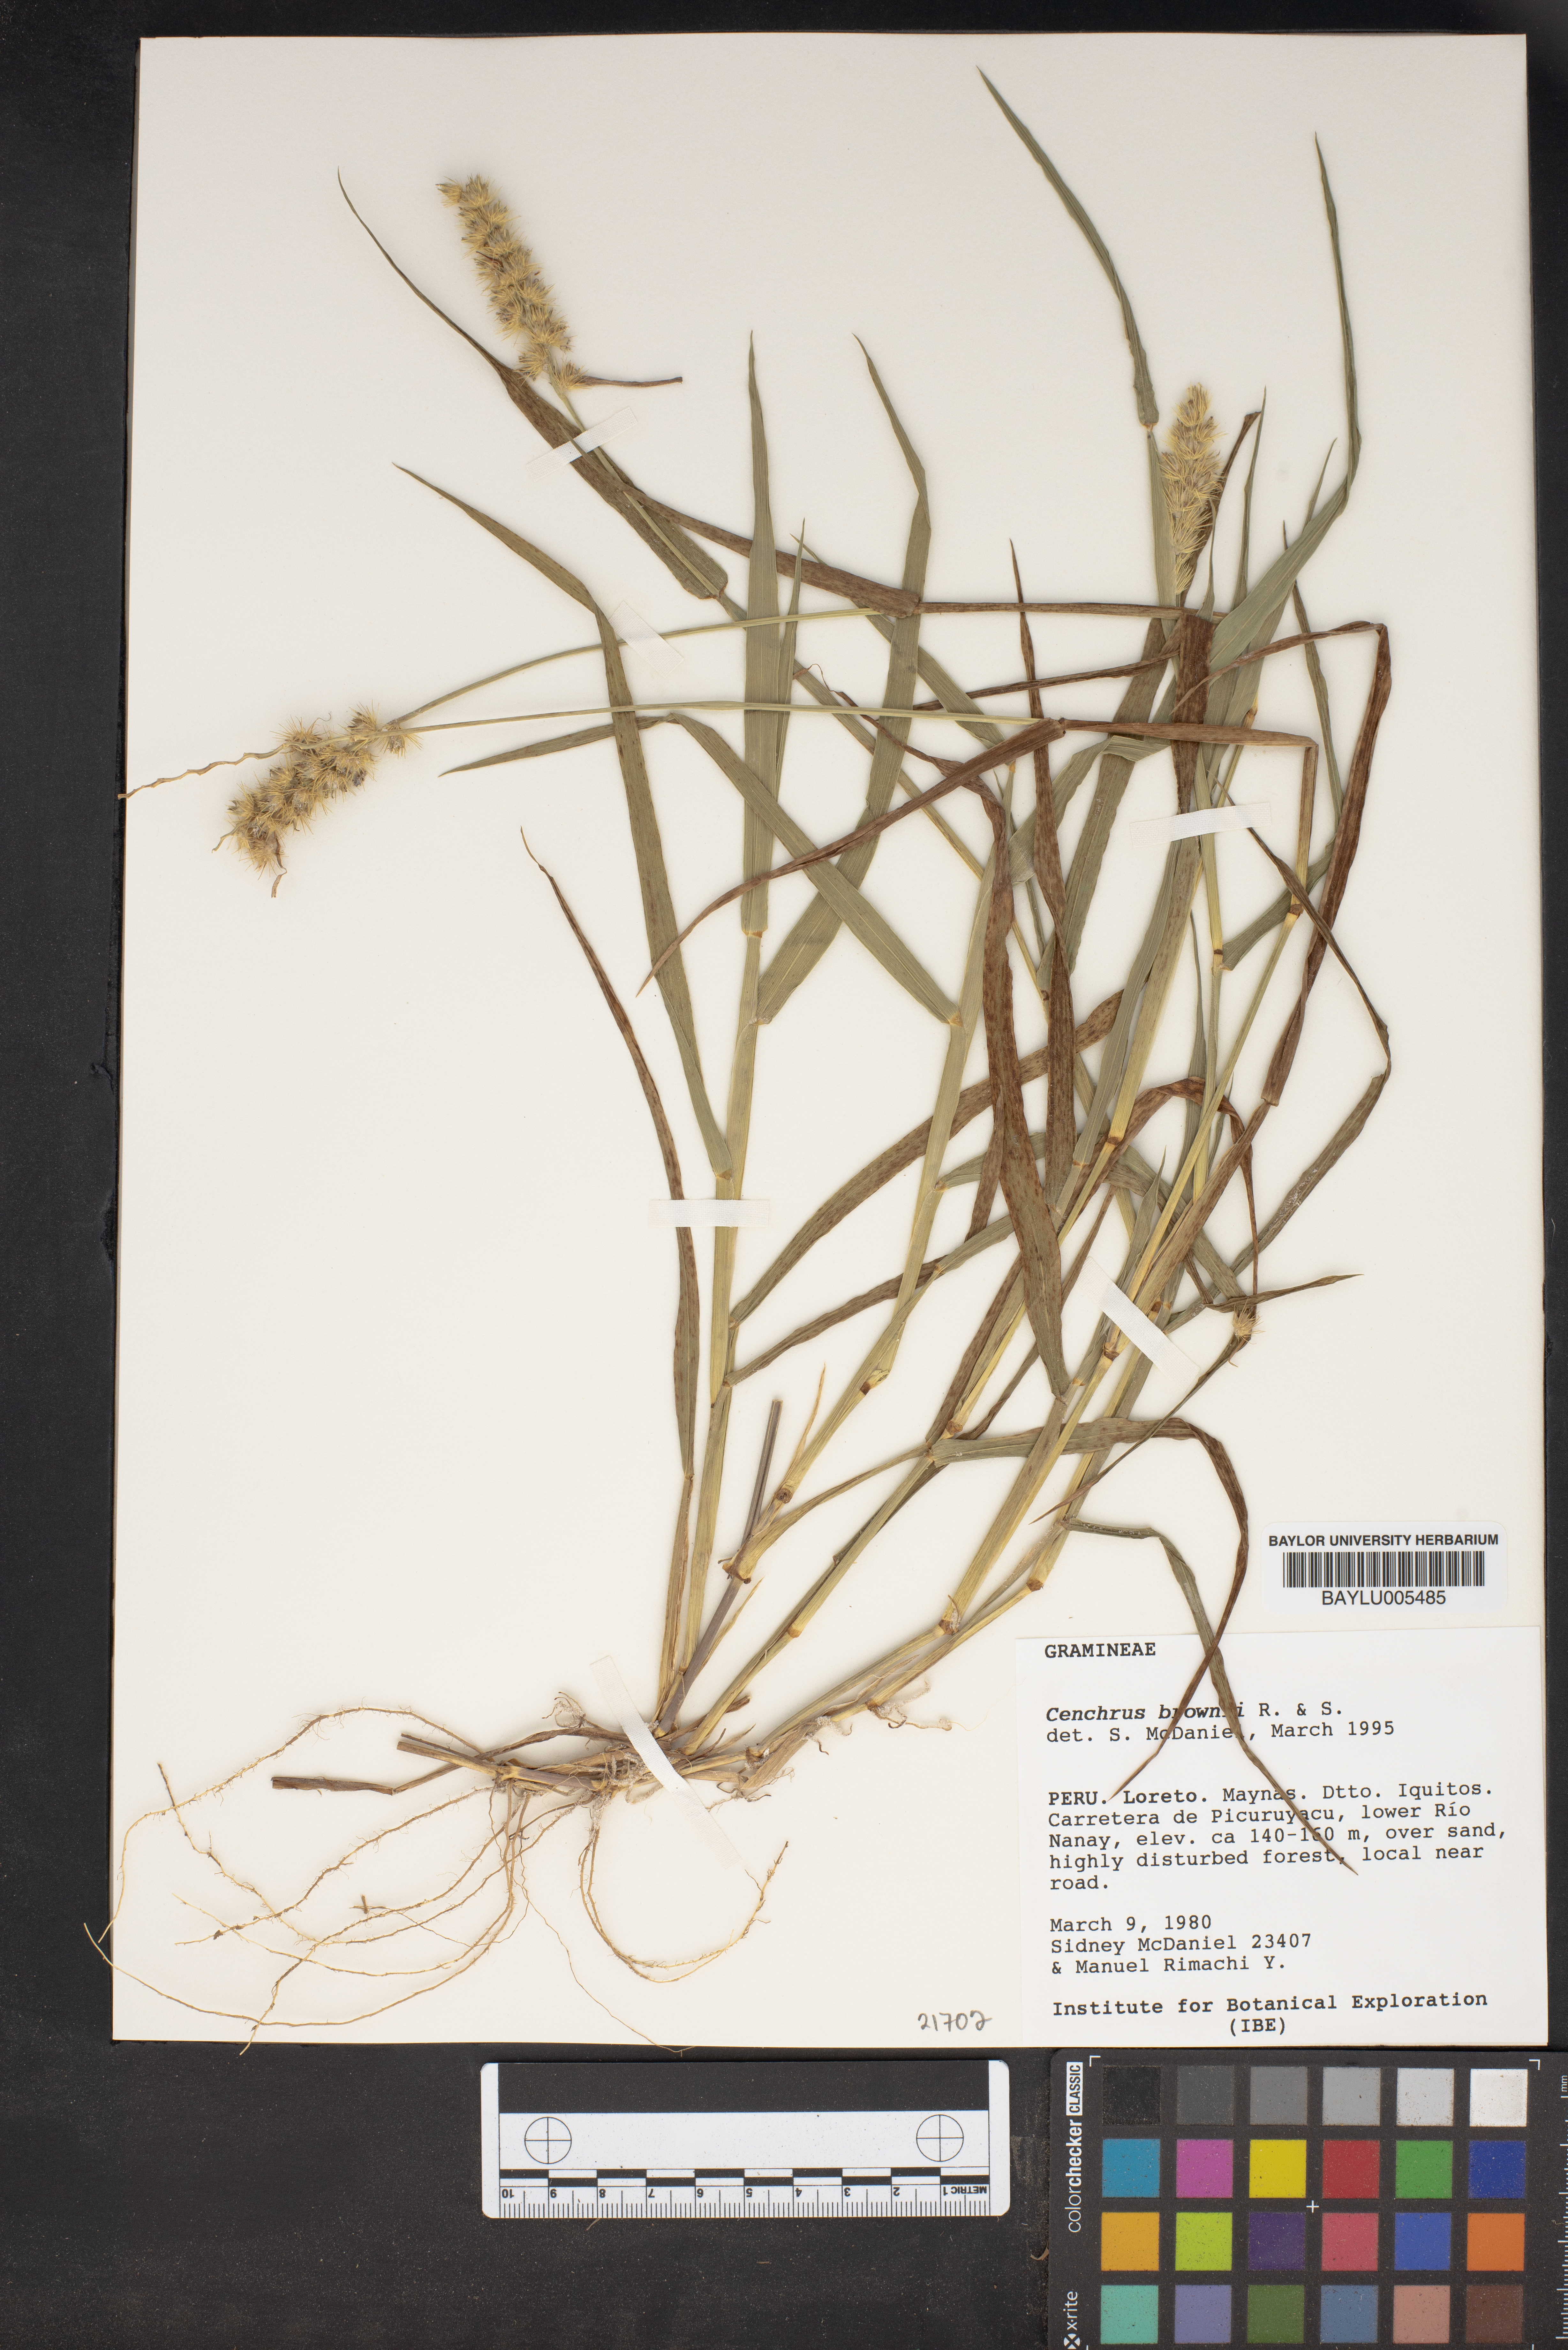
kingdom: Plantae
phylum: Tracheophyta
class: Liliopsida
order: Poales
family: Poaceae
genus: Cenchrus
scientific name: Cenchrus brownii
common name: Slim-bristle sandbur
